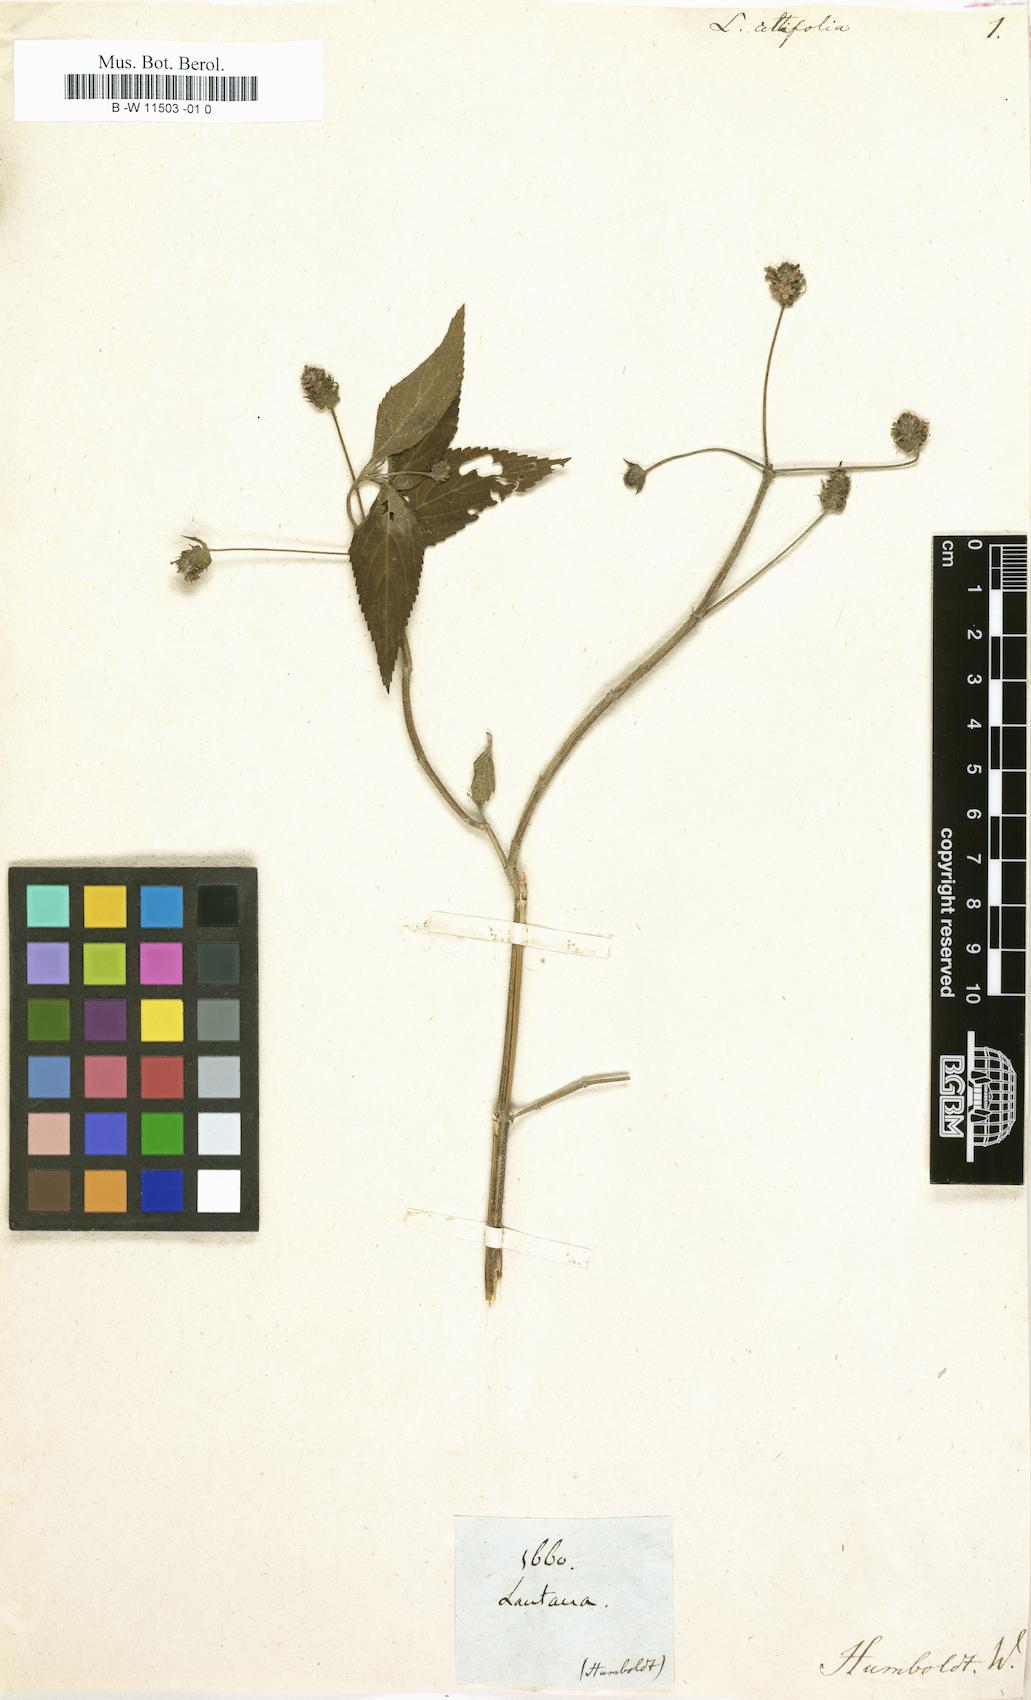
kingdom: Plantae
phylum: Tracheophyta
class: Magnoliopsida
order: Lamiales
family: Verbenaceae
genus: Lantana
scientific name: Lantana trifolia
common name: Sweet-sage
